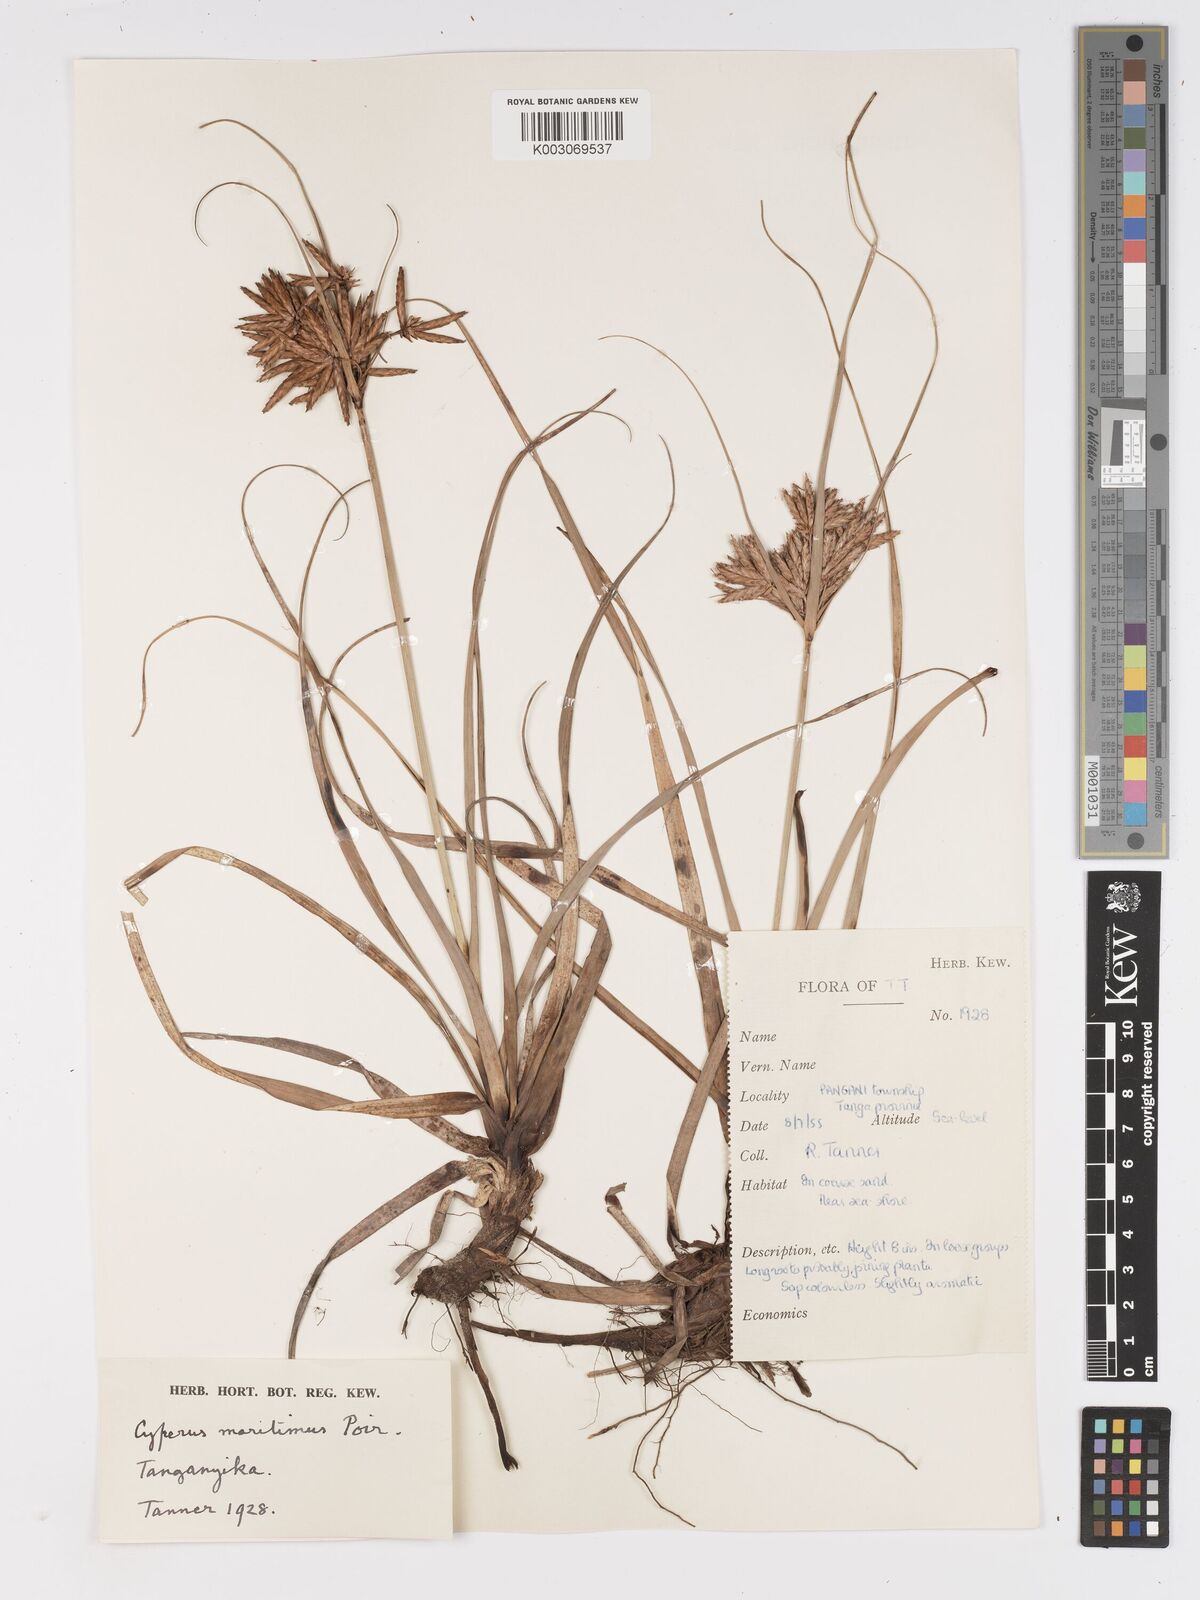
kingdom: Plantae
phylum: Tracheophyta
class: Liliopsida
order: Poales
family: Cyperaceae
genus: Cyperus
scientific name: Cyperus crassipes
